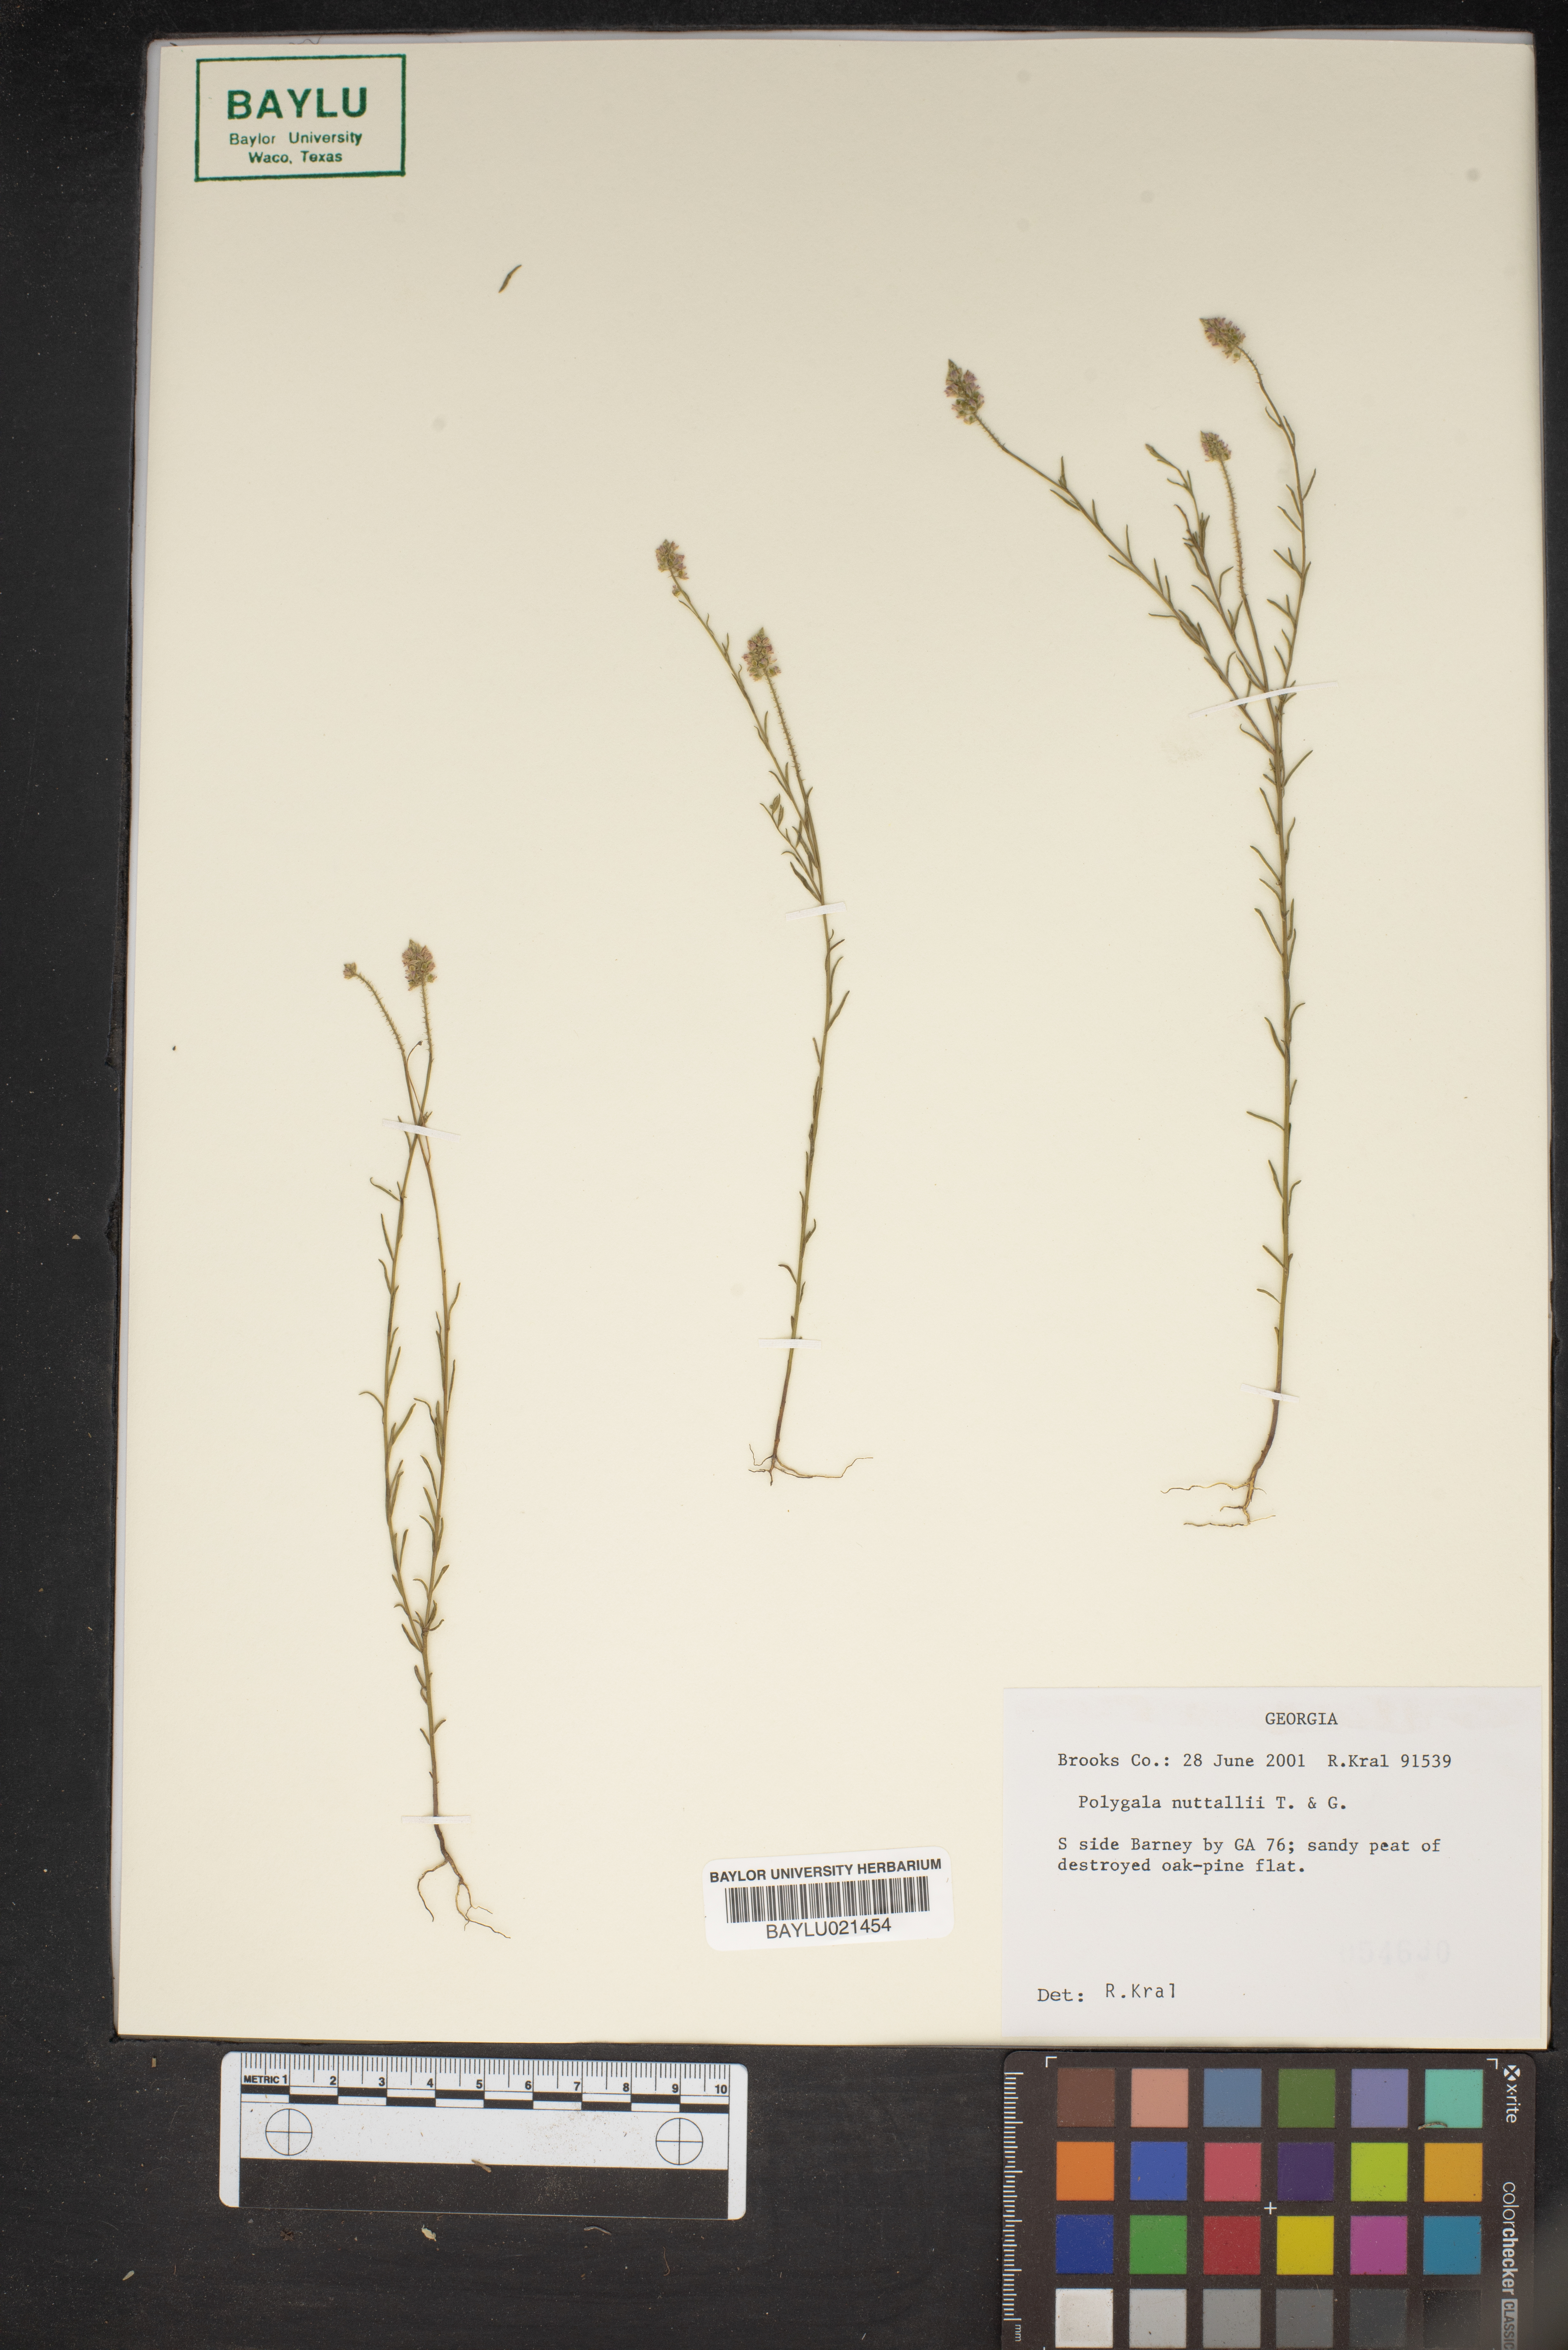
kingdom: Plantae
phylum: Tracheophyta
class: Magnoliopsida
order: Fabales
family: Polygalaceae
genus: Polygala
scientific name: Polygala nuttallii
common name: Nuttall's milkwort
